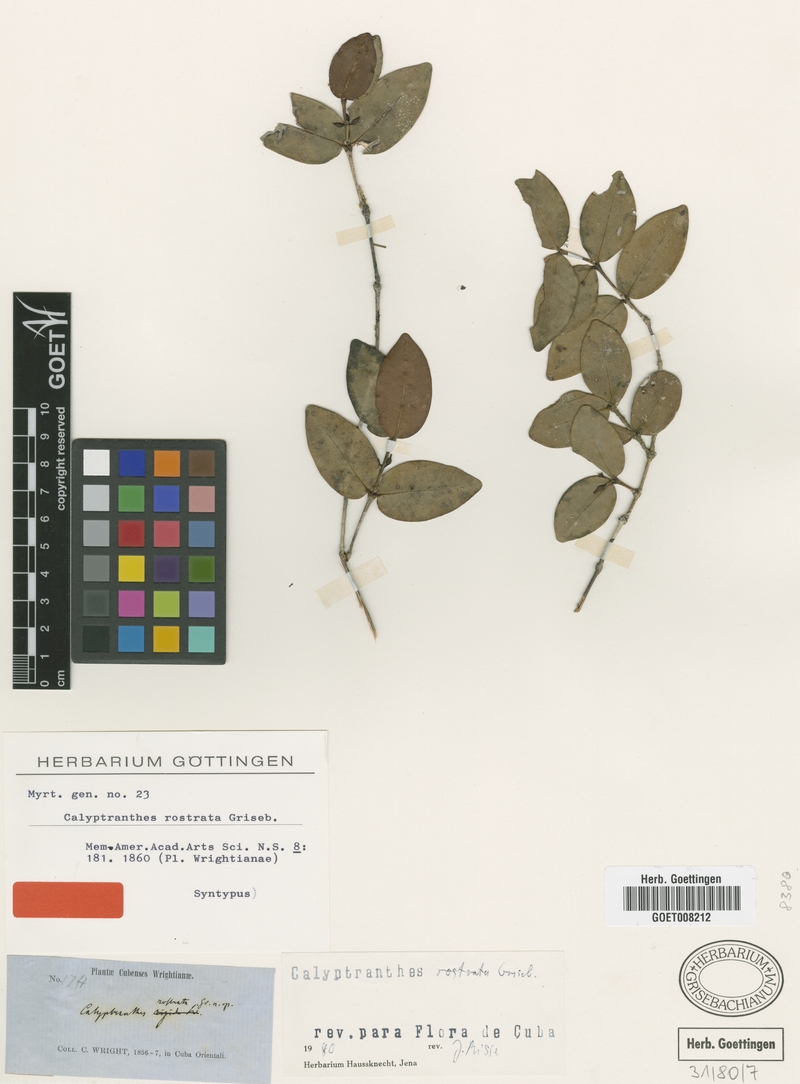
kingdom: Plantae
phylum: Tracheophyta
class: Magnoliopsida
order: Myrtales
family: Myrtaceae
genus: Myrcia
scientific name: Myrcia adunca
